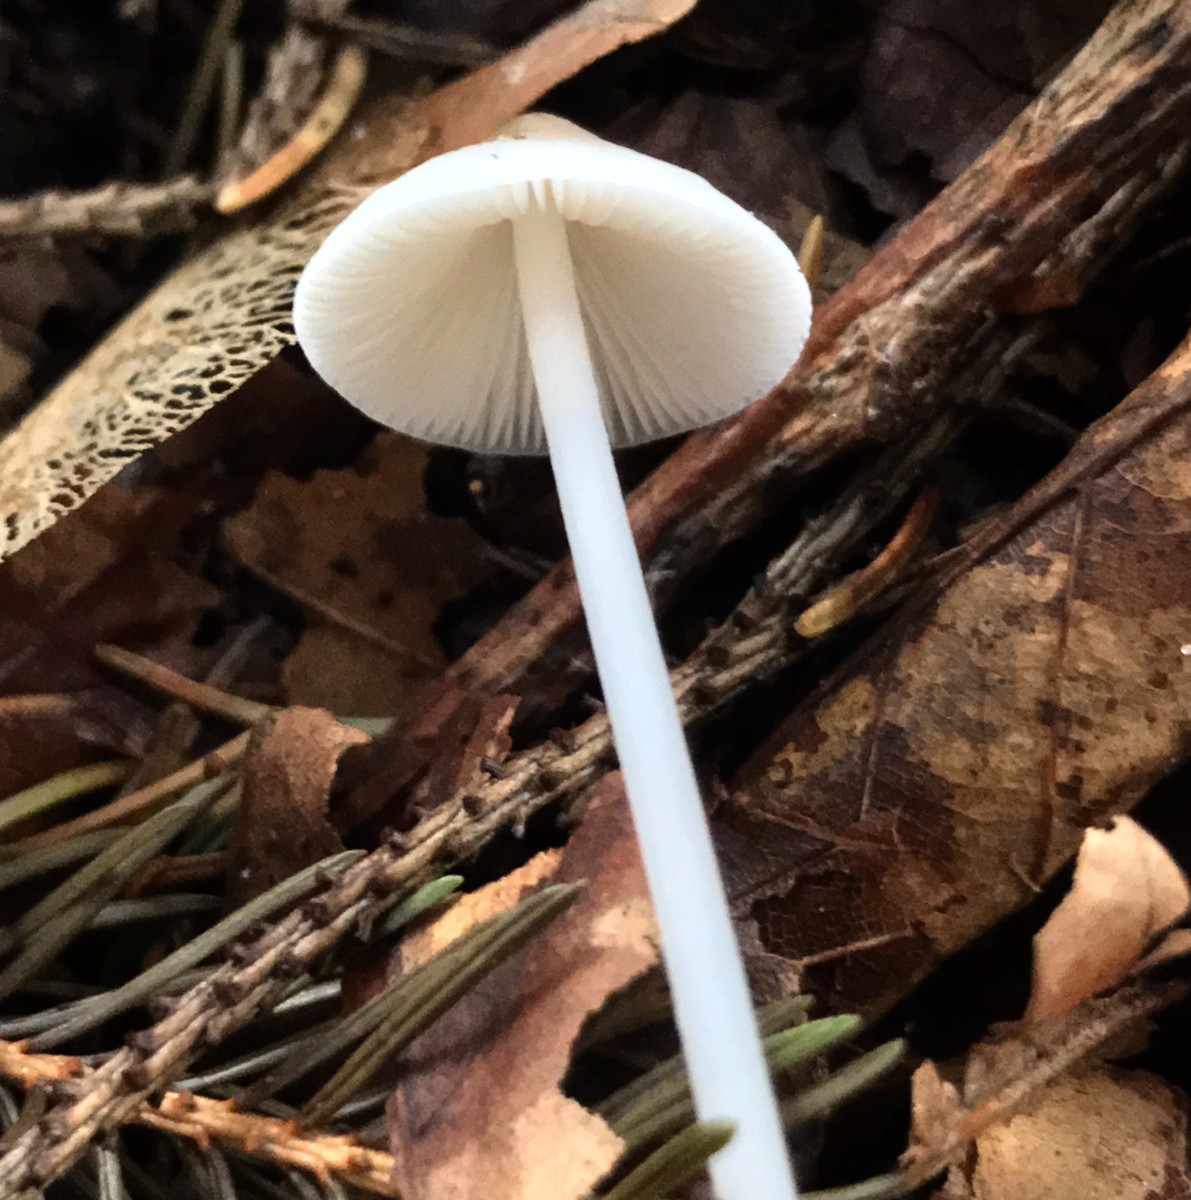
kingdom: Fungi
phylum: Basidiomycota
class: Agaricomycetes
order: Agaricales
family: Mycenaceae
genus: Mycena
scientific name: Mycena
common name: huesvamp
